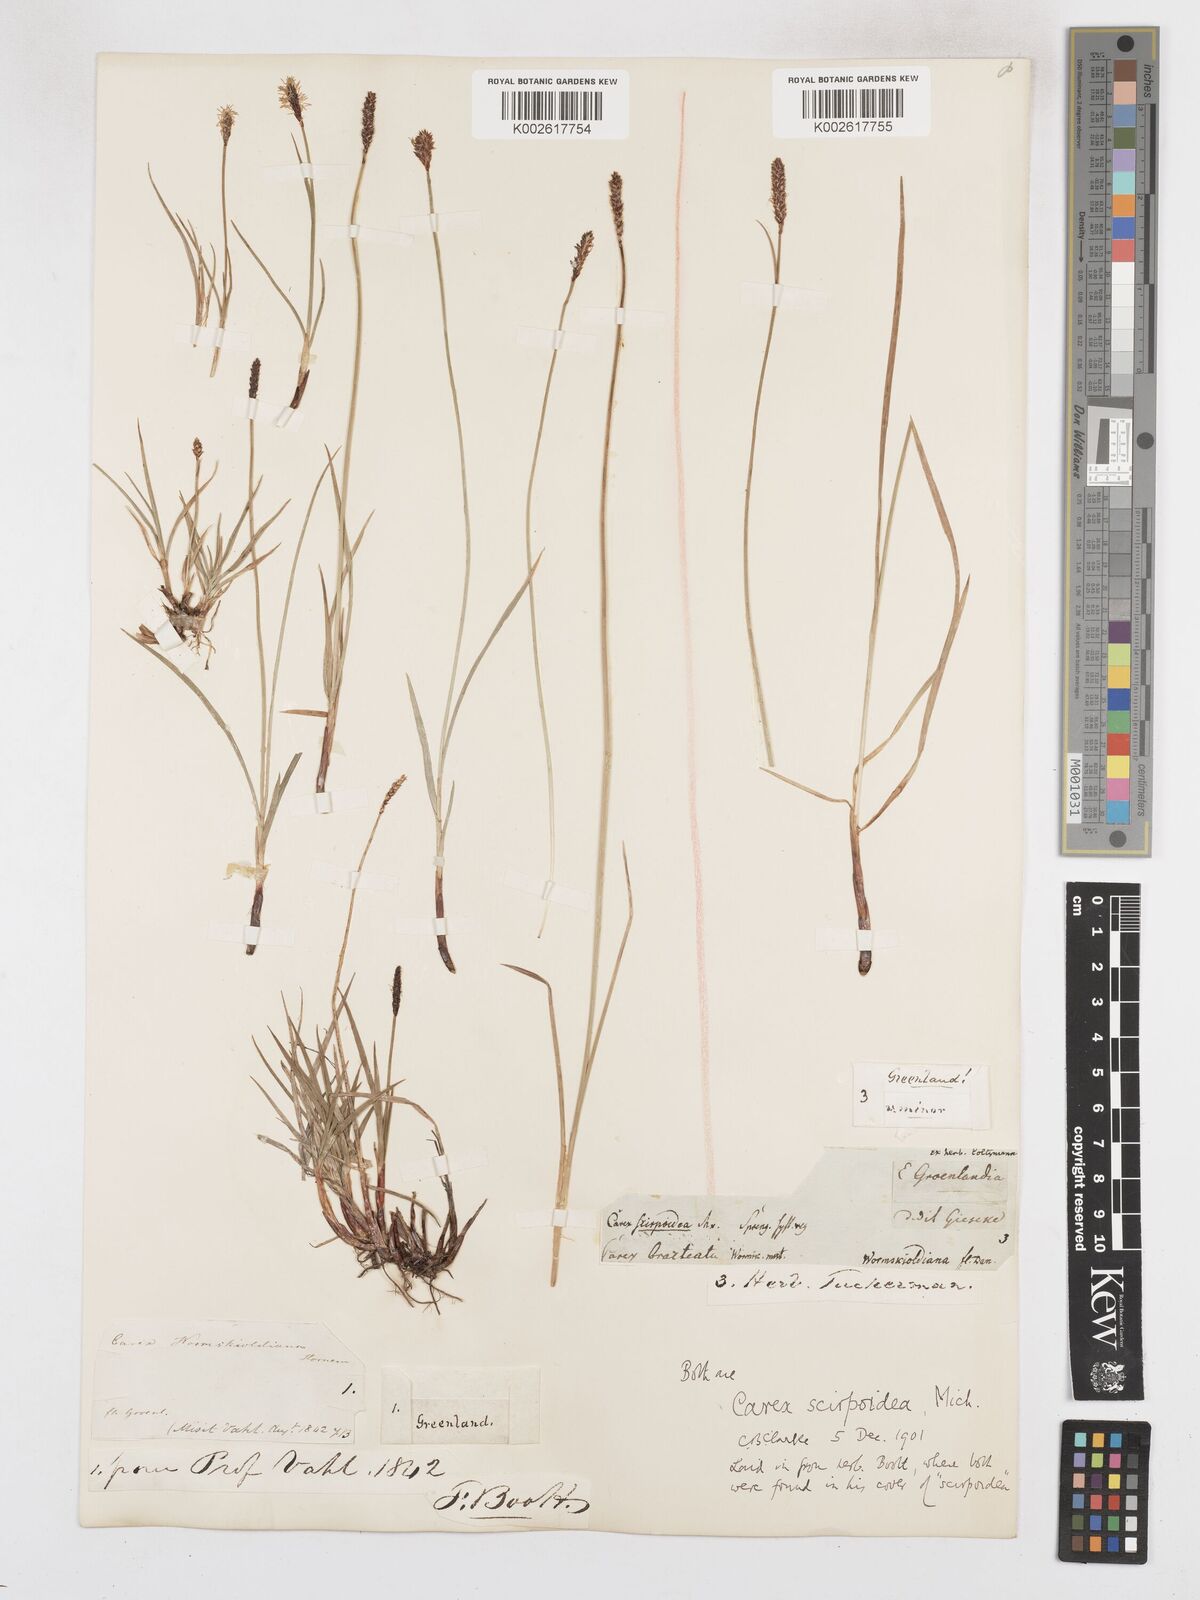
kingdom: Plantae
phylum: Tracheophyta
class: Liliopsida
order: Poales
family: Cyperaceae
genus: Carex
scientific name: Carex scirpoidea
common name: Canada single-spike sedge
